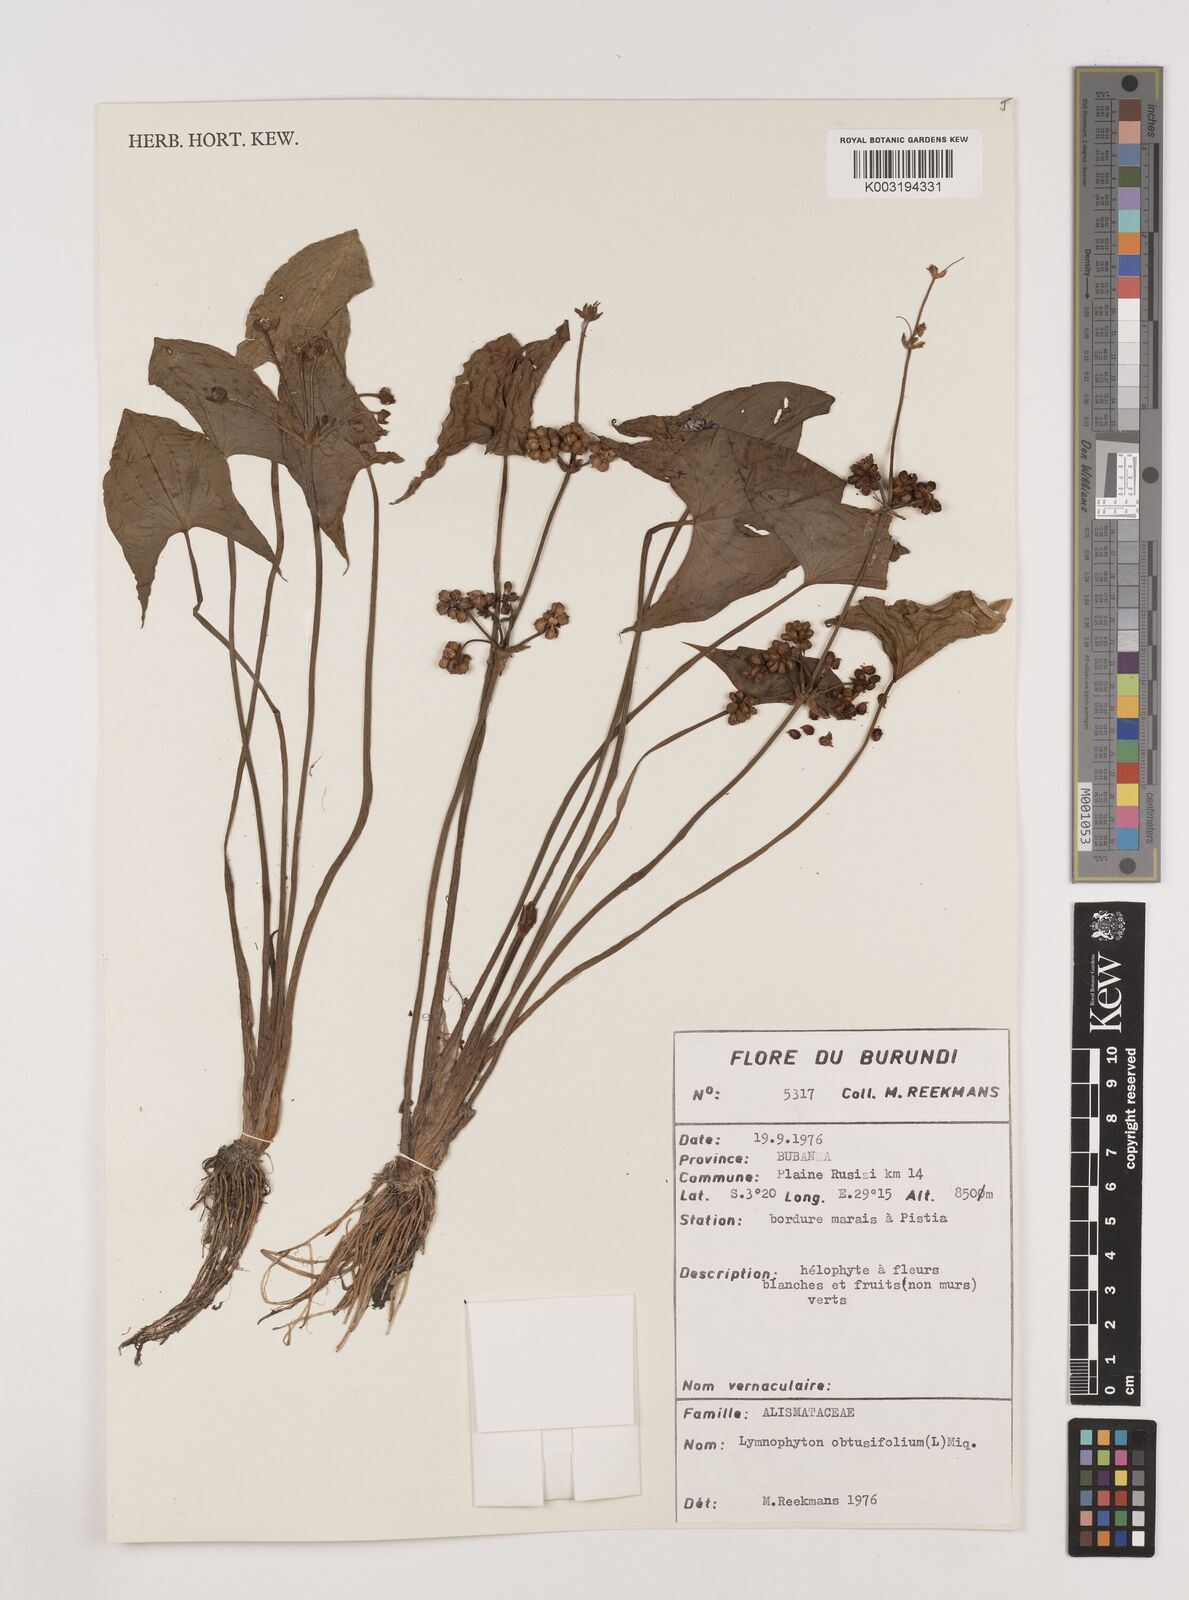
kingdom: Plantae
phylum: Tracheophyta
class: Liliopsida
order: Alismatales
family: Alismataceae
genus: Limnophyton
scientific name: Limnophyton obtusifolium
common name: Arrow head
